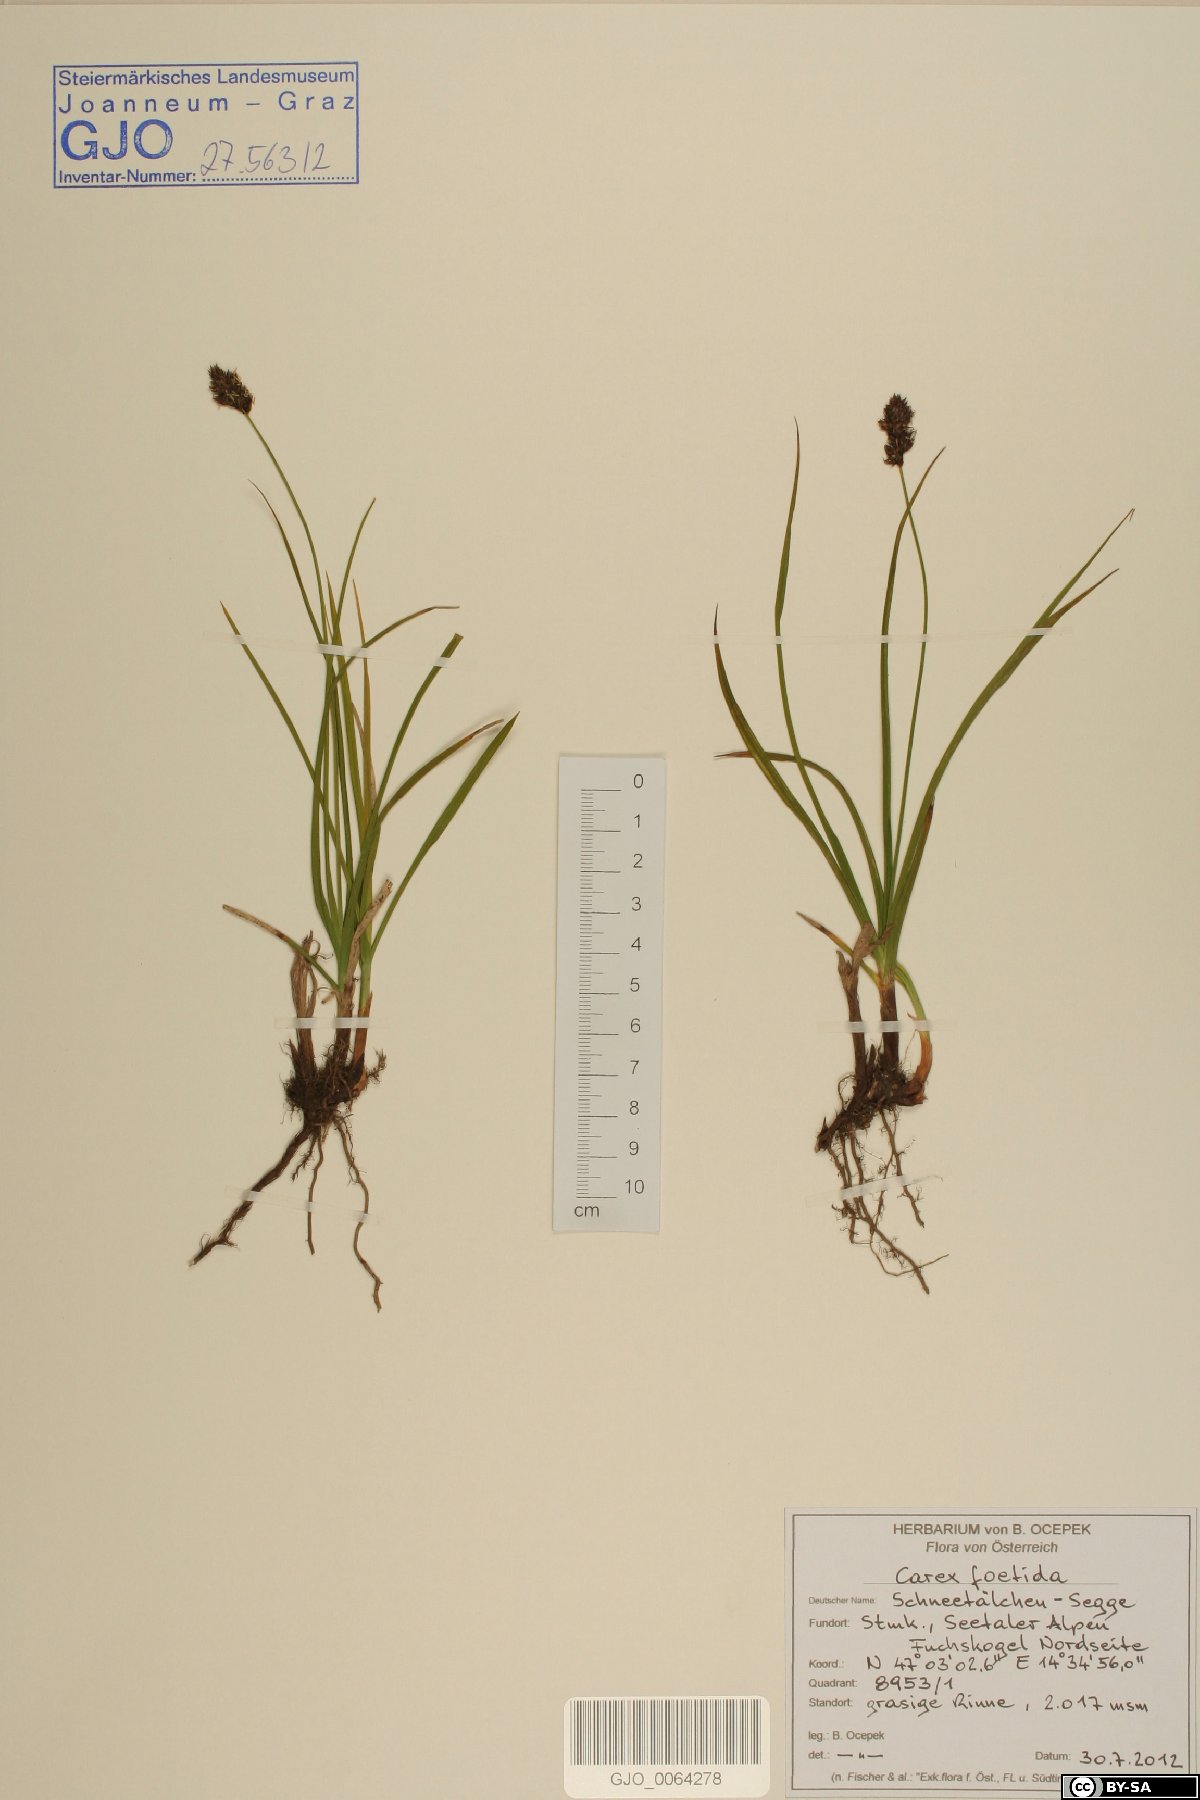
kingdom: Plantae
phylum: Tracheophyta
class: Liliopsida
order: Poales
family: Cyperaceae
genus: Carex
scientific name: Carex foetida
